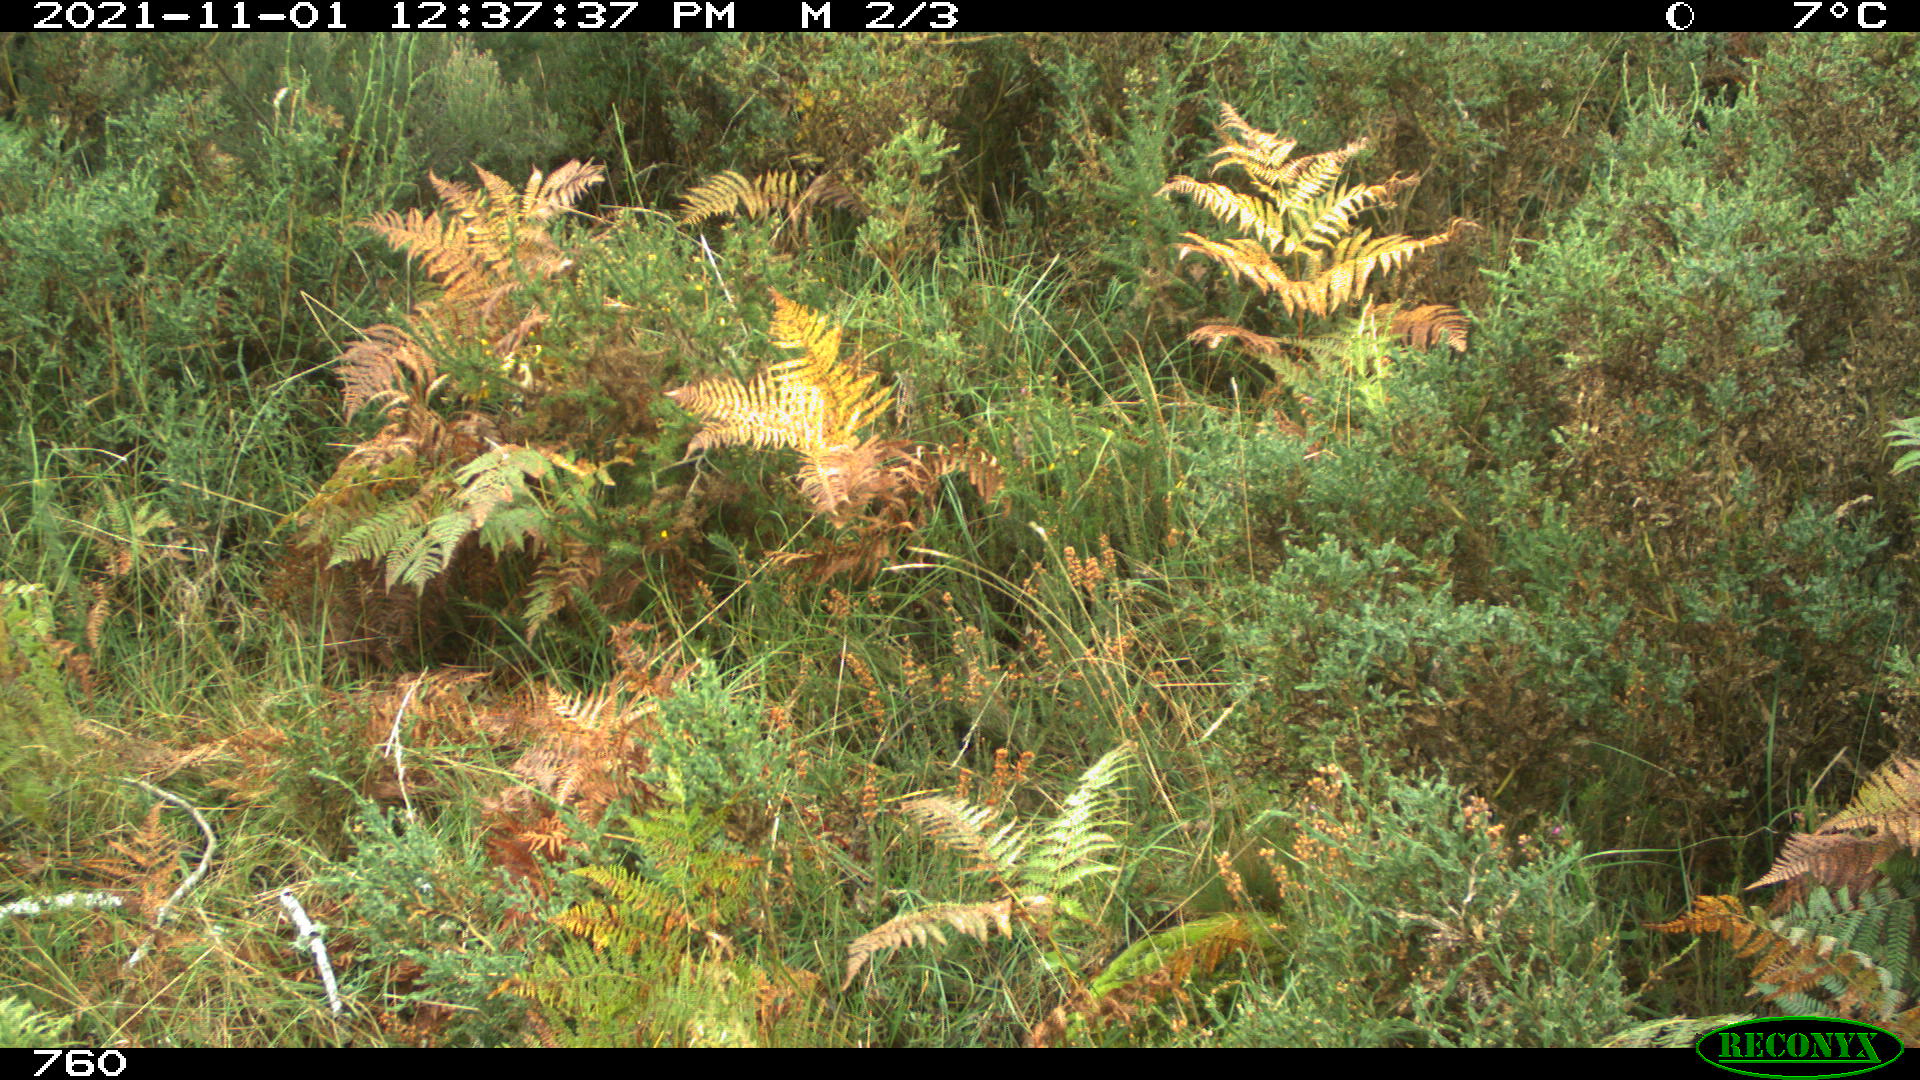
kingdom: Animalia
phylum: Chordata
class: Mammalia
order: Perissodactyla
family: Equidae
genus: Equus
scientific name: Equus caballus
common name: Horse
